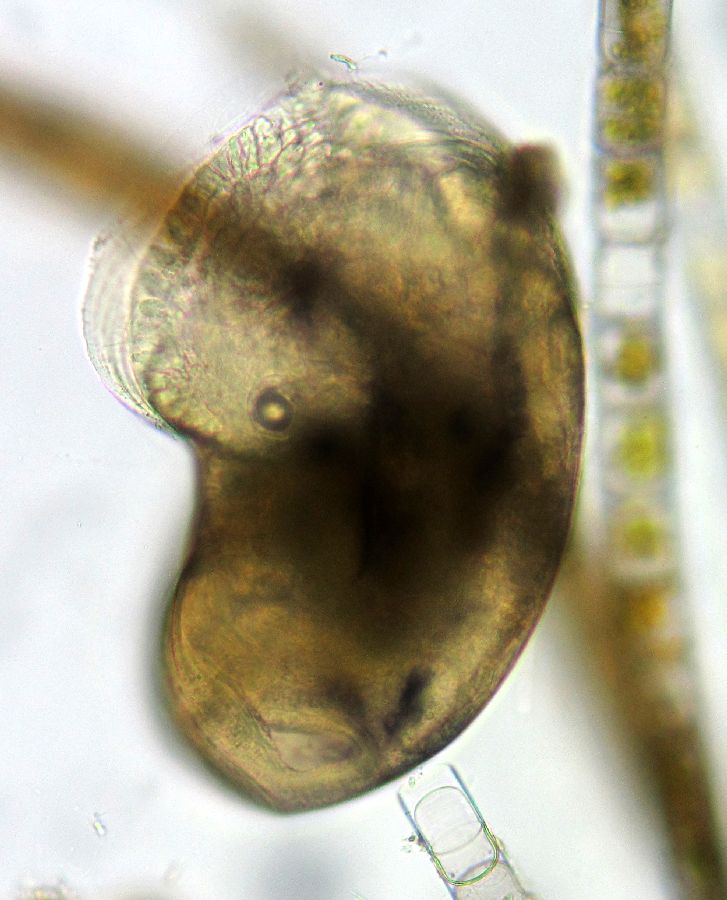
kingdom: Animalia
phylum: Mollusca
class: Gastropoda
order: Littorinimorpha
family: Littorinidae
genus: Littorina
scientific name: Littorina
